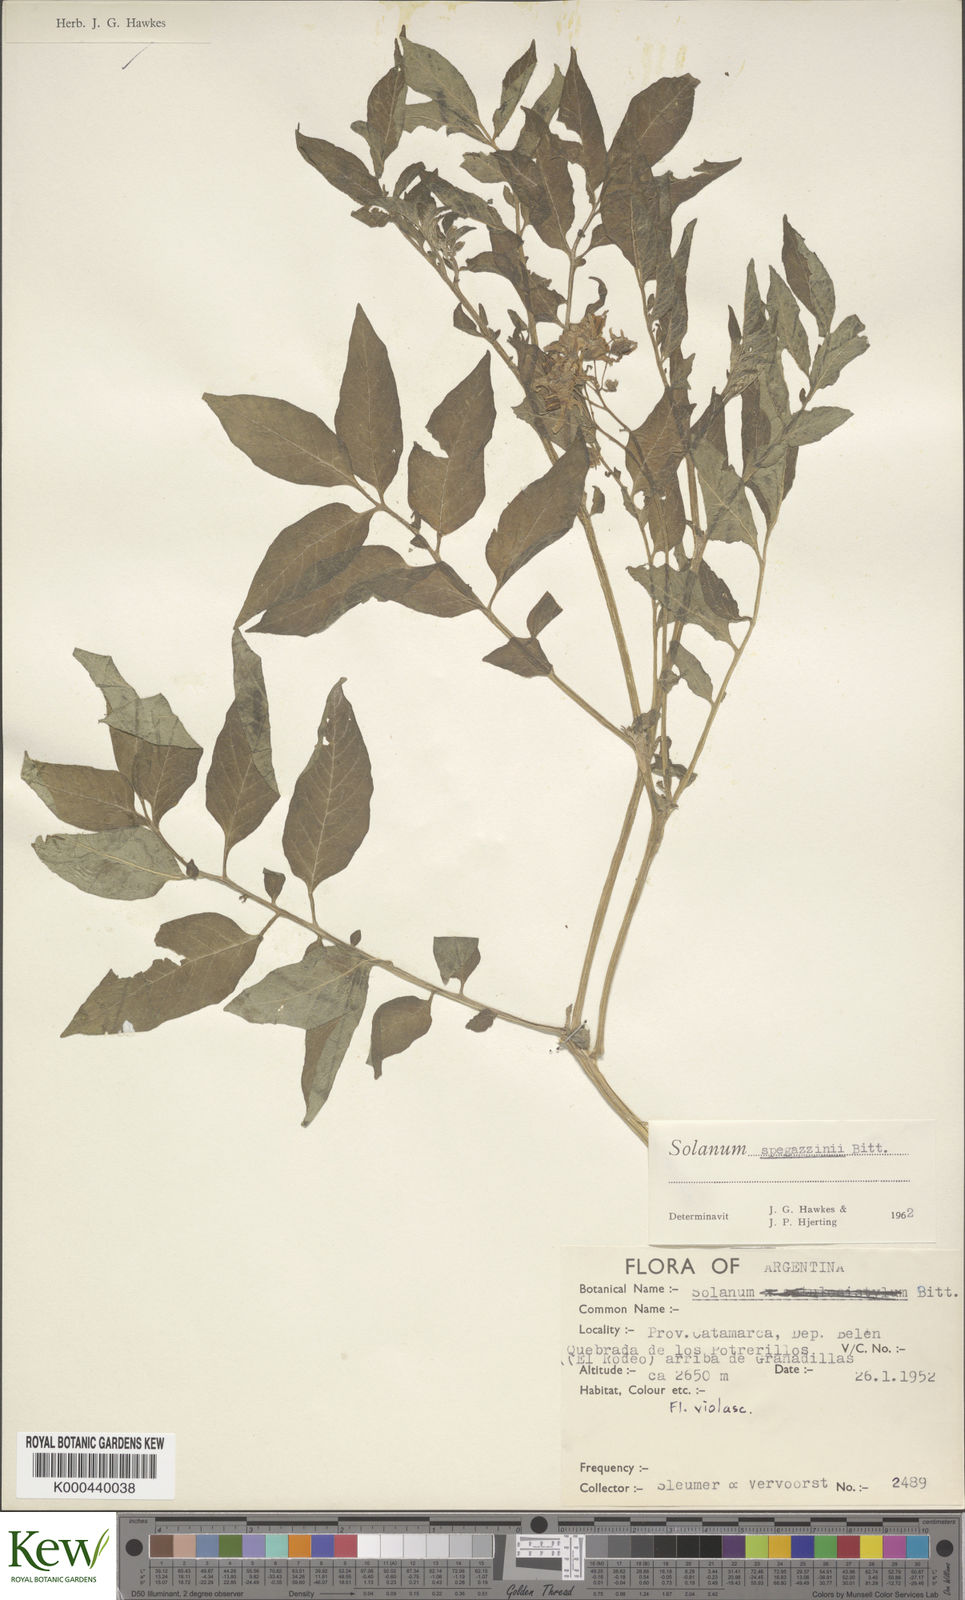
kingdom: Plantae
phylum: Tracheophyta
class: Magnoliopsida
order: Solanales
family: Solanaceae
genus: Solanum
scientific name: Solanum brevicaule
